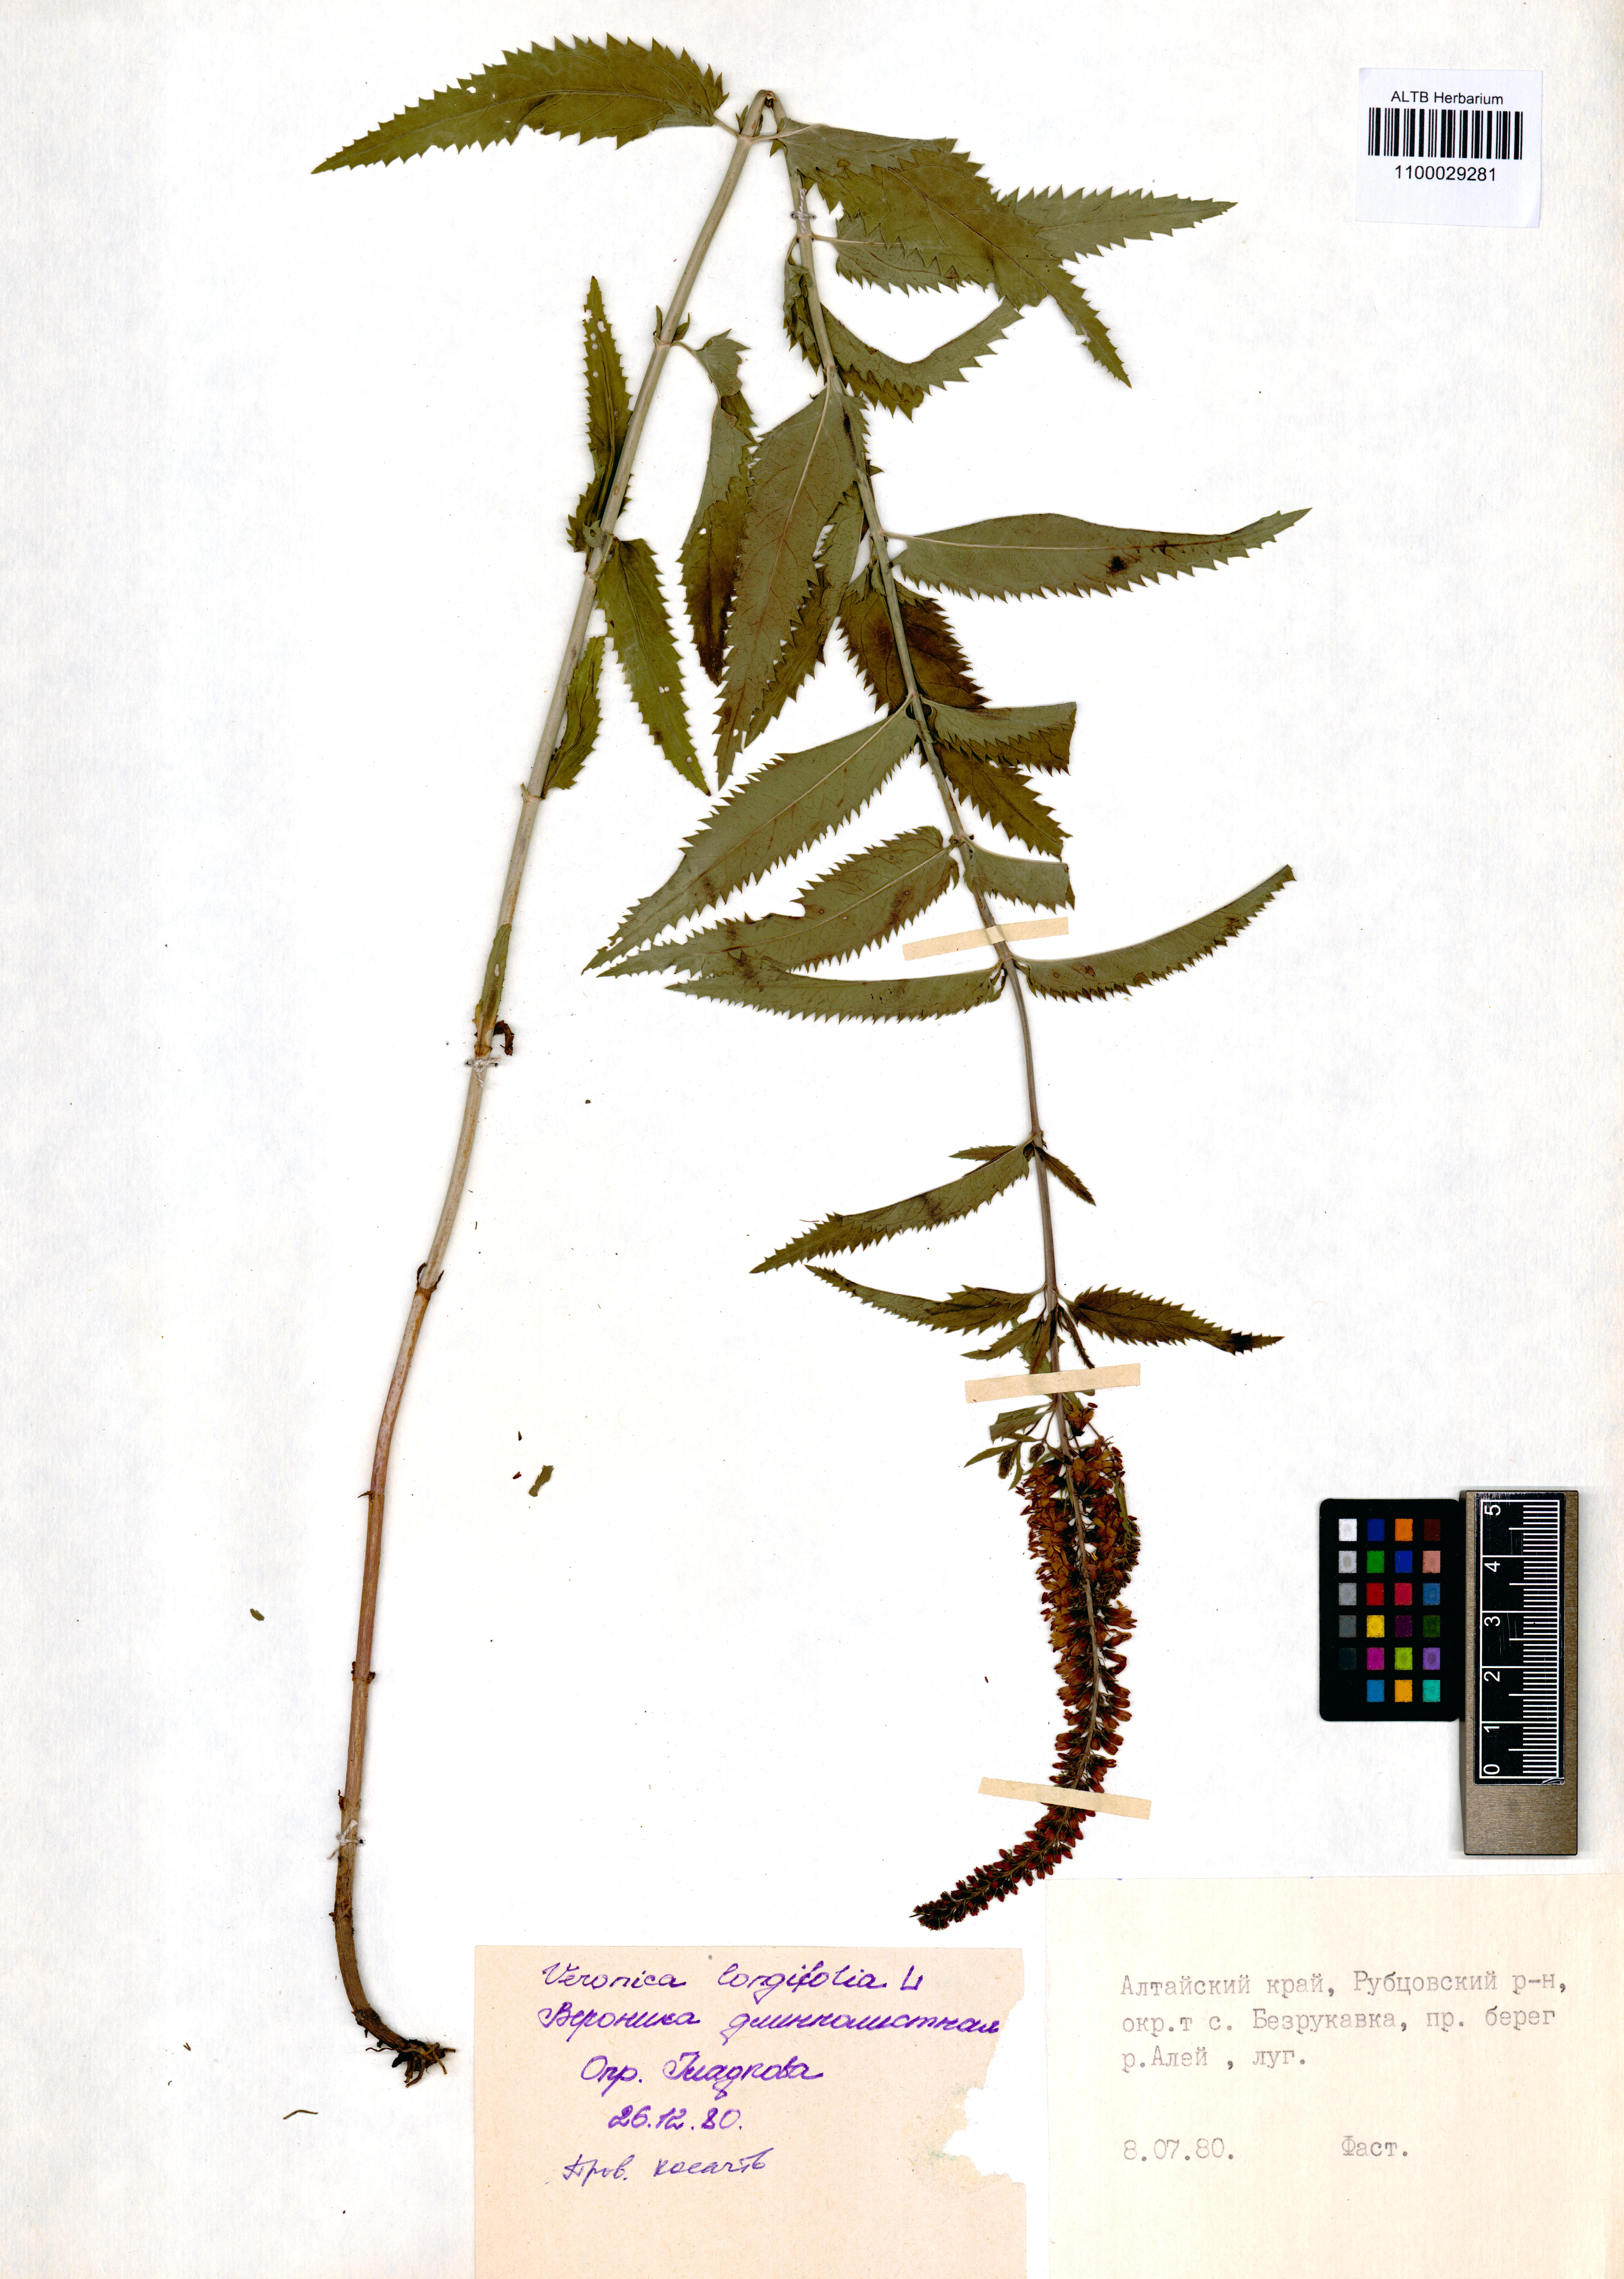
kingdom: Plantae
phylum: Tracheophyta
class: Magnoliopsida
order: Lamiales
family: Plantaginaceae
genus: Veronica
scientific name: Veronica longifolia
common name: Garden speedwell
